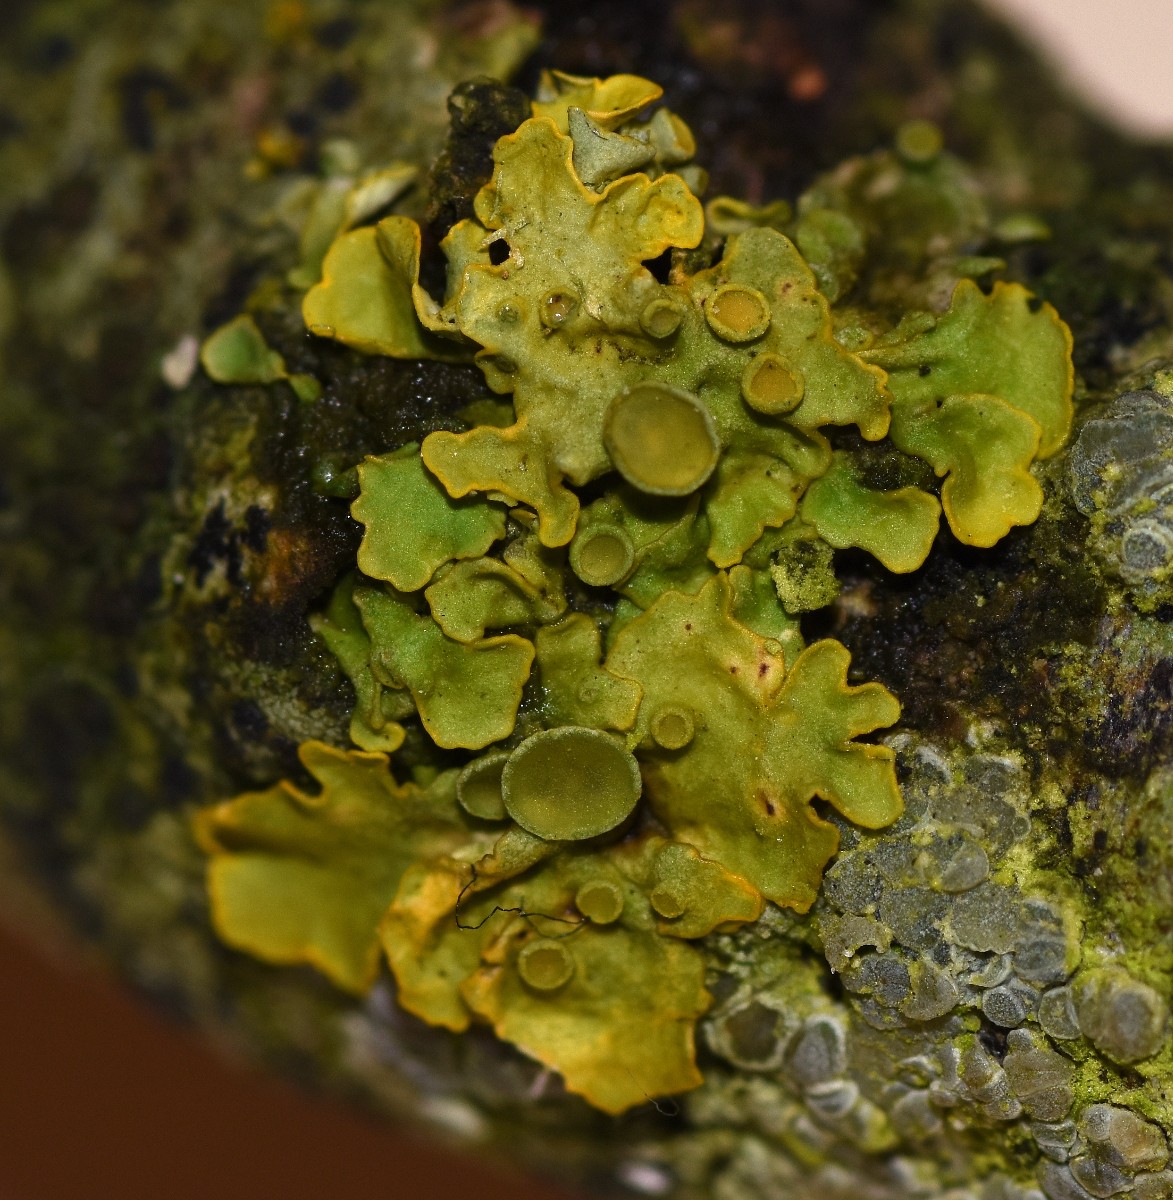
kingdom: Fungi
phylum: Ascomycota
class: Lecanoromycetes
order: Teloschistales
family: Teloschistaceae
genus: Xanthoria
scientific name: Xanthoria parietina
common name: almindelig væggelav
